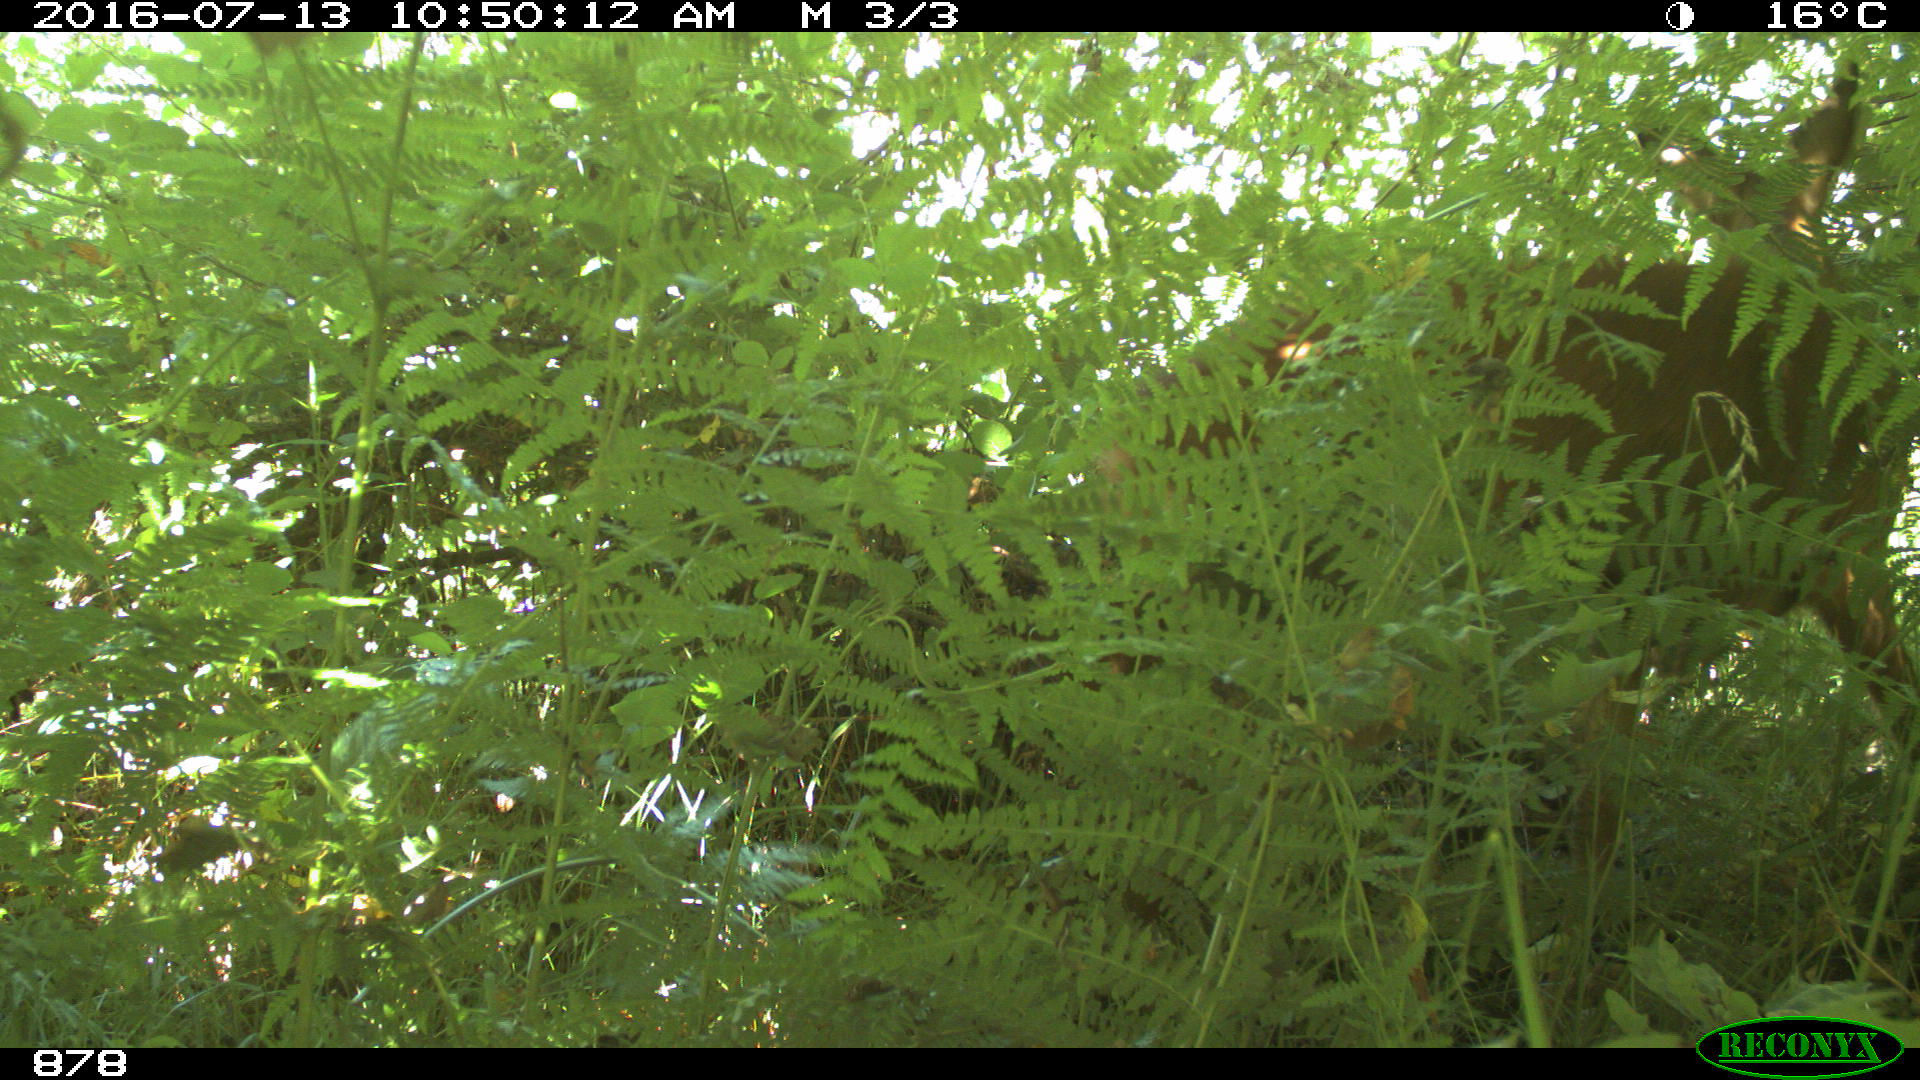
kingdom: Animalia
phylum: Chordata
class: Mammalia
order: Artiodactyla
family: Cervidae
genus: Capreolus
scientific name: Capreolus capreolus
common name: Western roe deer
